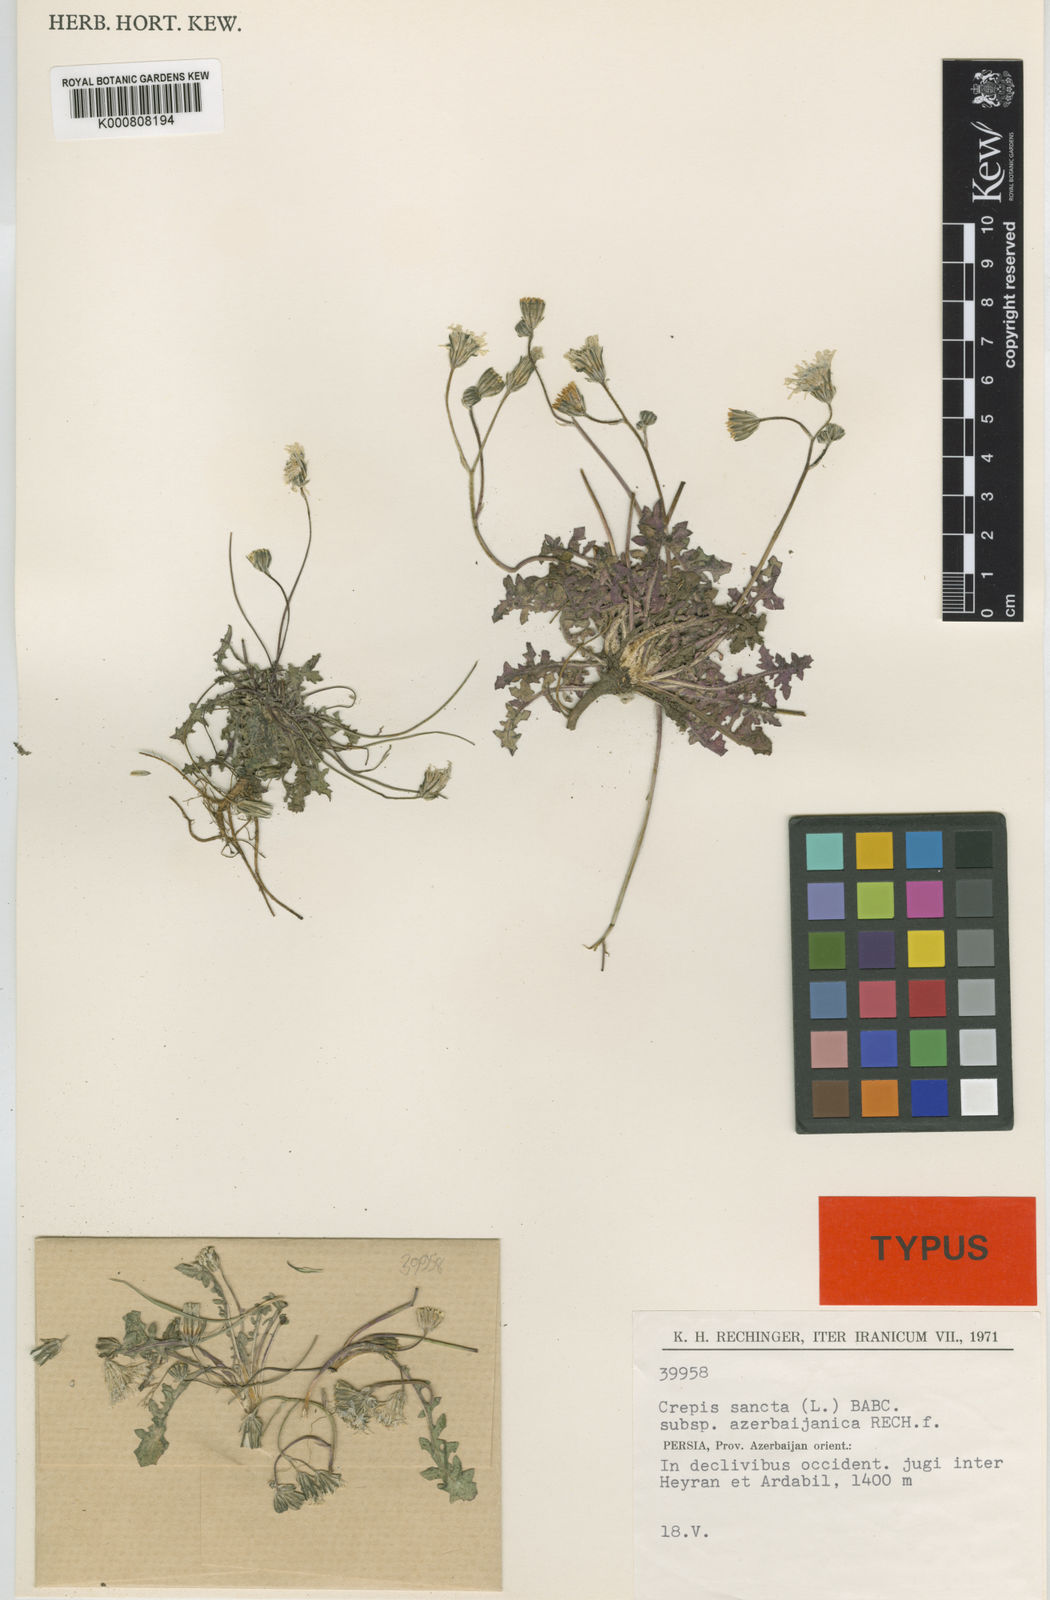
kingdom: Plantae
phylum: Tracheophyta
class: Magnoliopsida
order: Asterales
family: Asteraceae
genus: Crepis
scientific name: Crepis sancta
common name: Hawk's-beard
